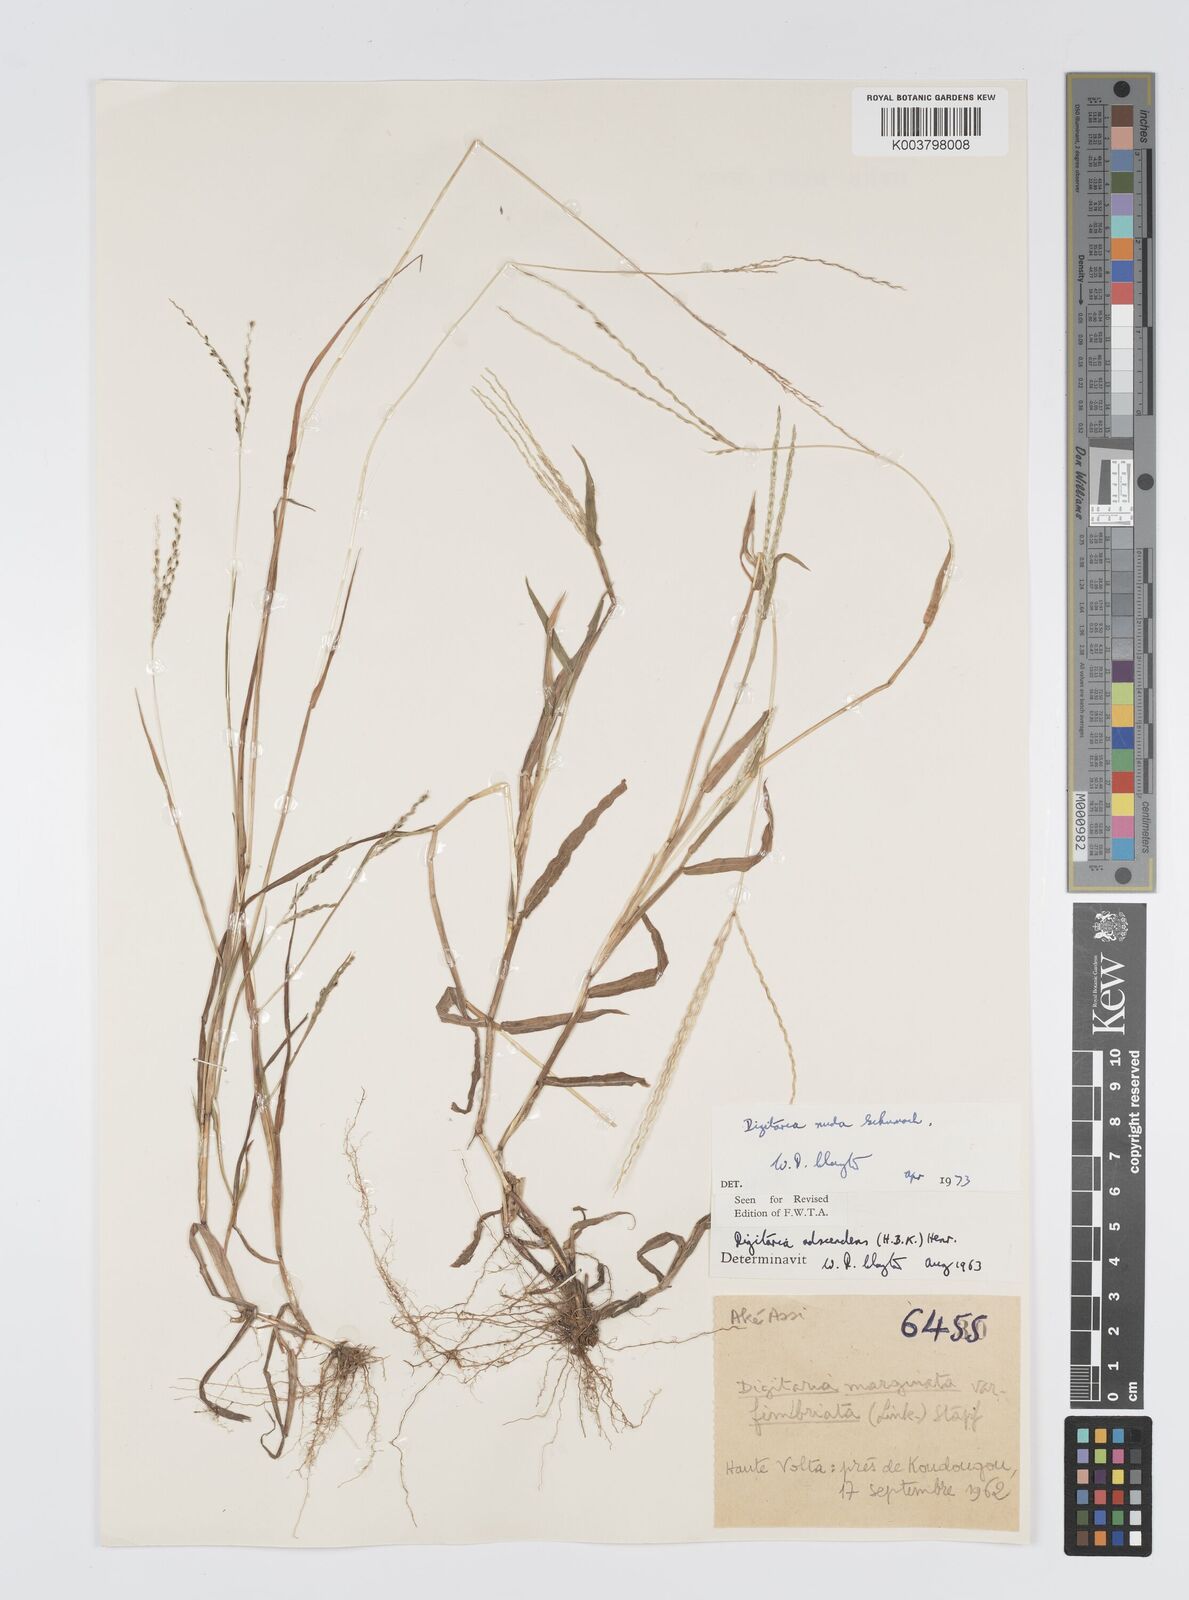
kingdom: Plantae
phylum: Tracheophyta
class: Liliopsida
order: Poales
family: Poaceae
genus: Digitaria
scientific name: Digitaria nuda
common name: Naked crabgrass
